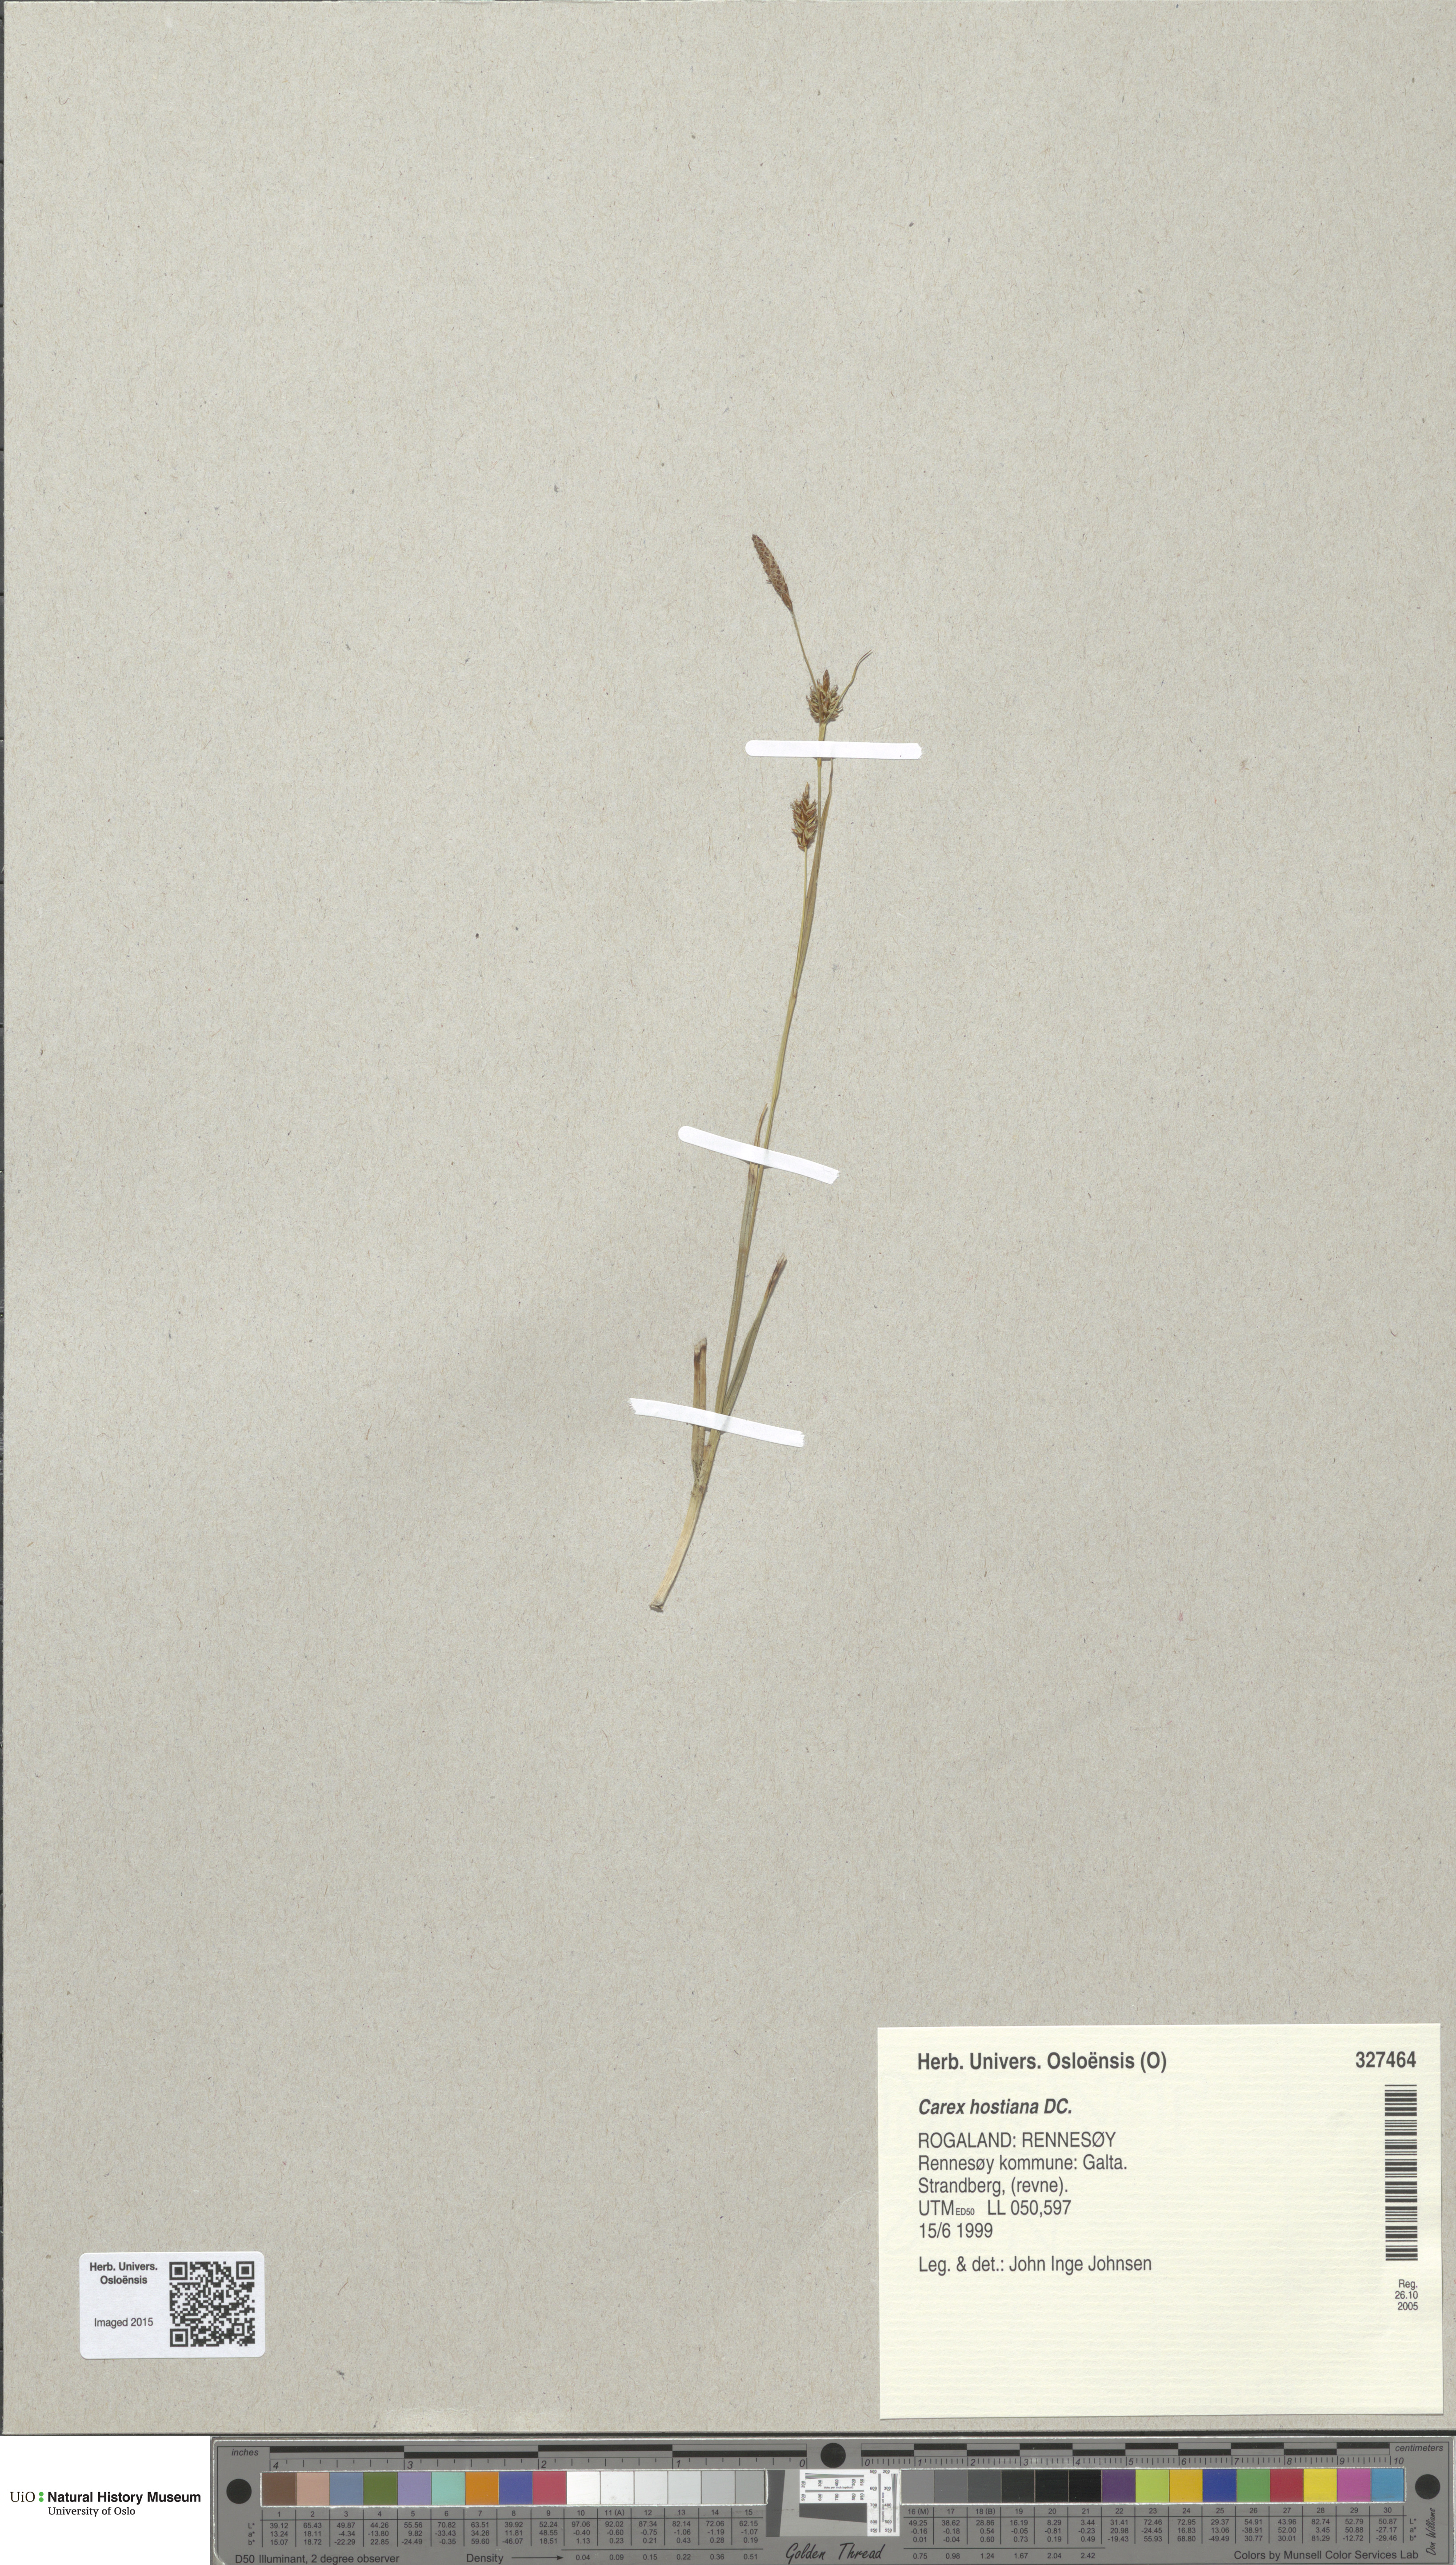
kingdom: Plantae
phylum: Tracheophyta
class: Liliopsida
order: Poales
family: Cyperaceae
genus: Carex
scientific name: Carex hostiana
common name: Tawny sedge
